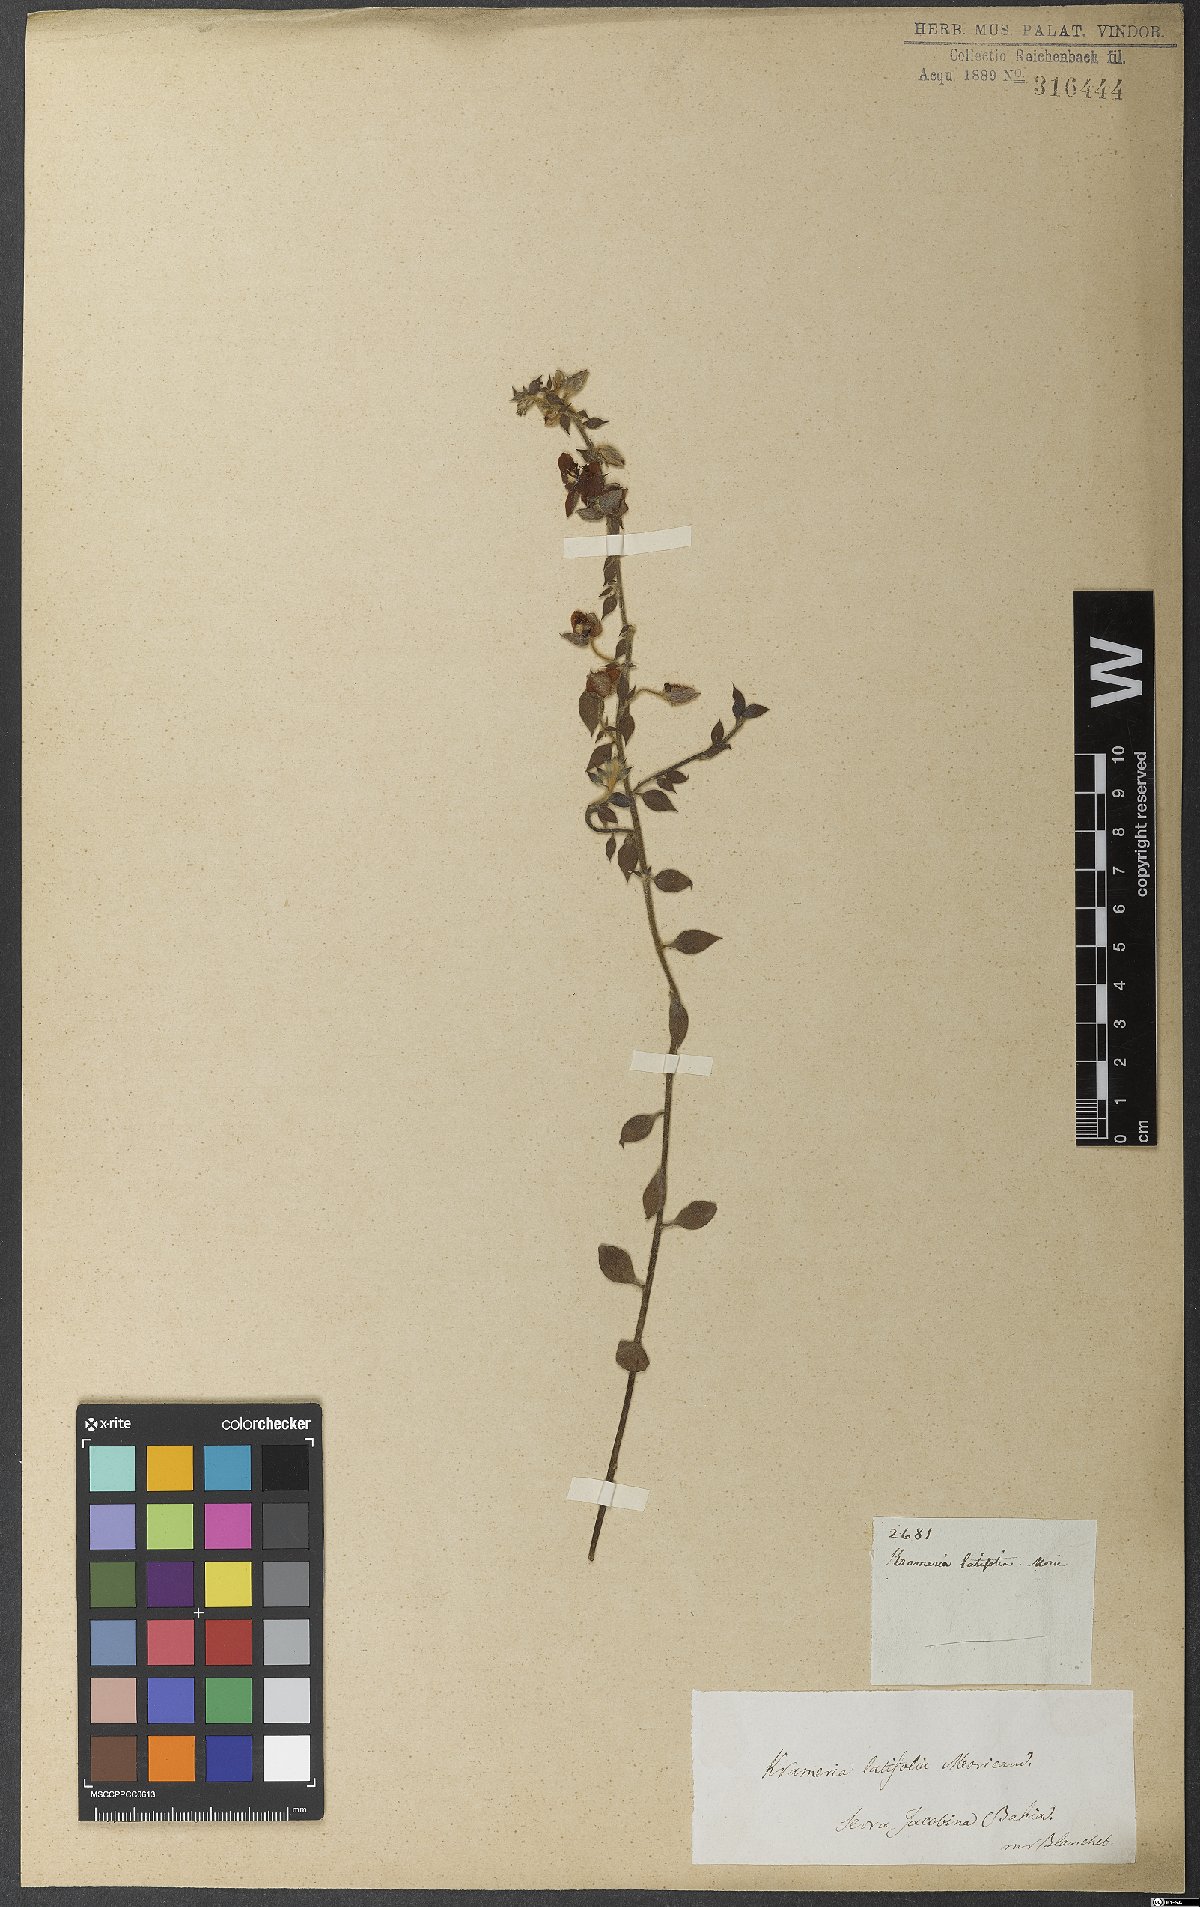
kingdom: Plantae
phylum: Tracheophyta
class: Magnoliopsida
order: Zygophyllales
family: Krameriaceae
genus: Krameria
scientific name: Krameria grandiflora
